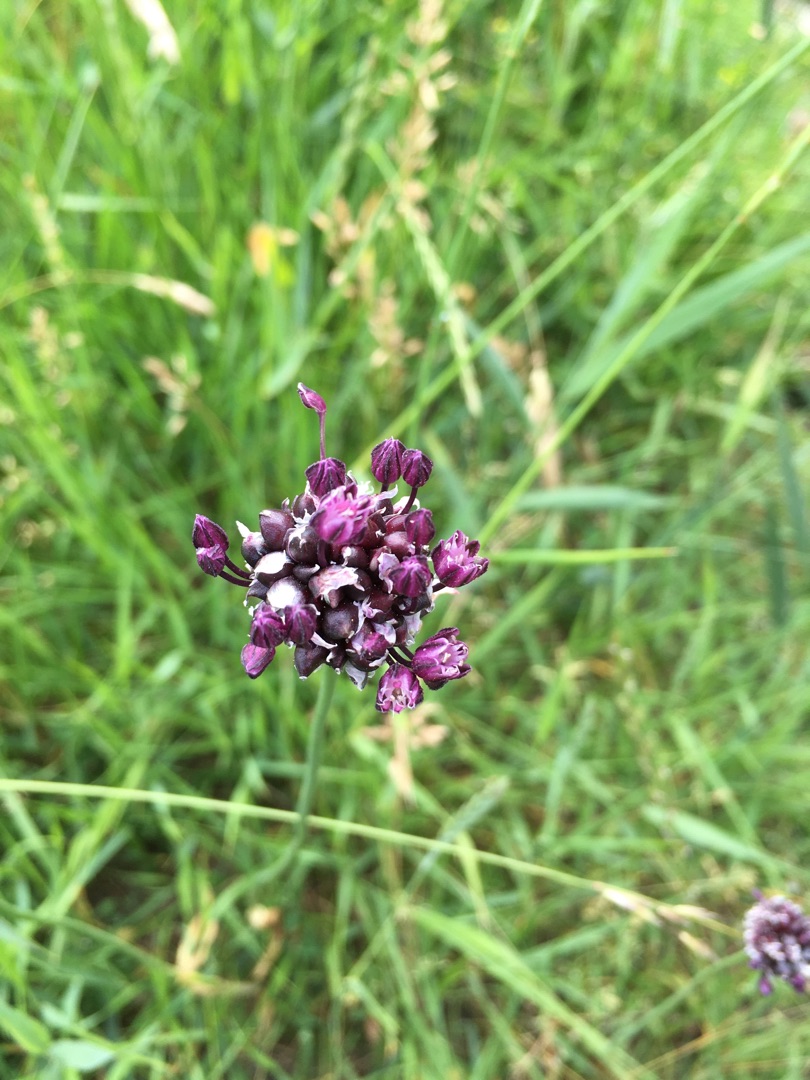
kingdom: Plantae
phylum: Tracheophyta
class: Liliopsida
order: Asparagales
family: Amaryllidaceae
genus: Allium
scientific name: Allium scorodoprasum
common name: Skov-løg
